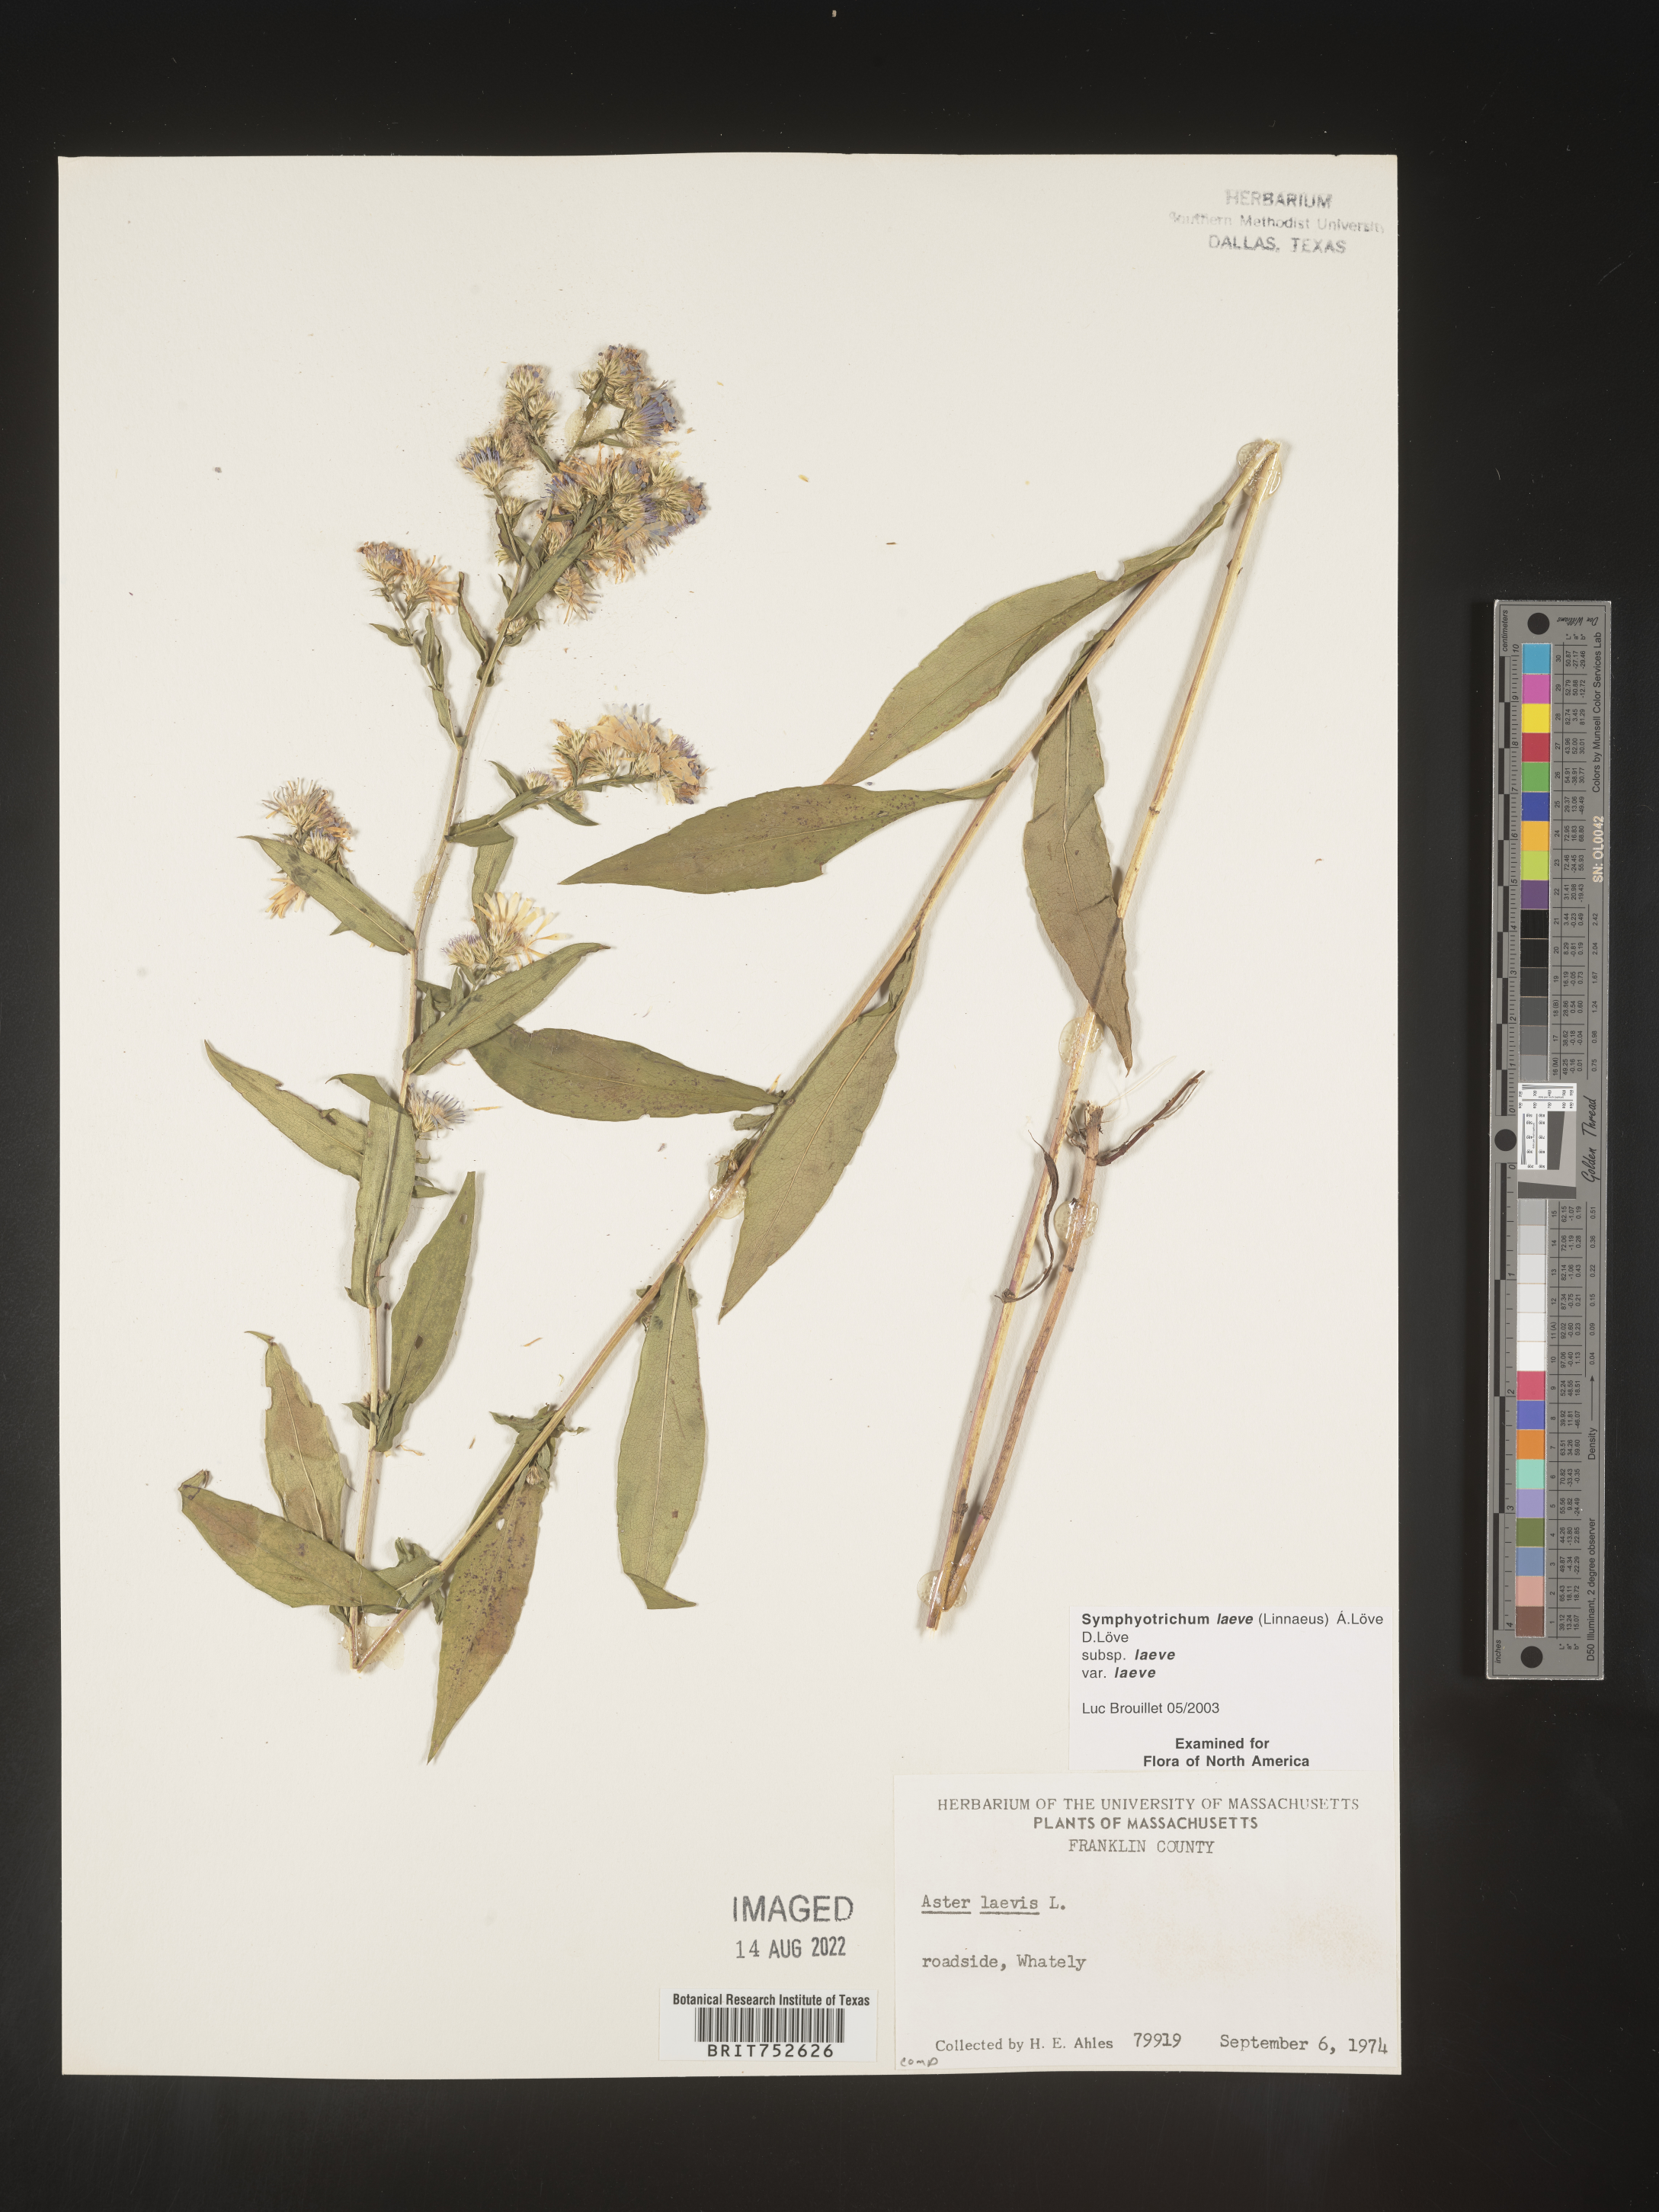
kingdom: Plantae
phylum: Tracheophyta
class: Magnoliopsida
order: Asterales
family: Asteraceae
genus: Symphyotrichum
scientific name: Symphyotrichum laeve
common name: Glaucous aster
